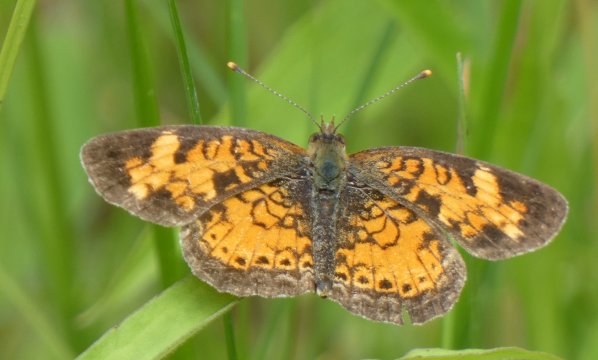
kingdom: Animalia
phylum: Arthropoda
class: Insecta
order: Lepidoptera
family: Nymphalidae
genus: Phyciodes
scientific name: Phyciodes tharos
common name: Northern Crescent
